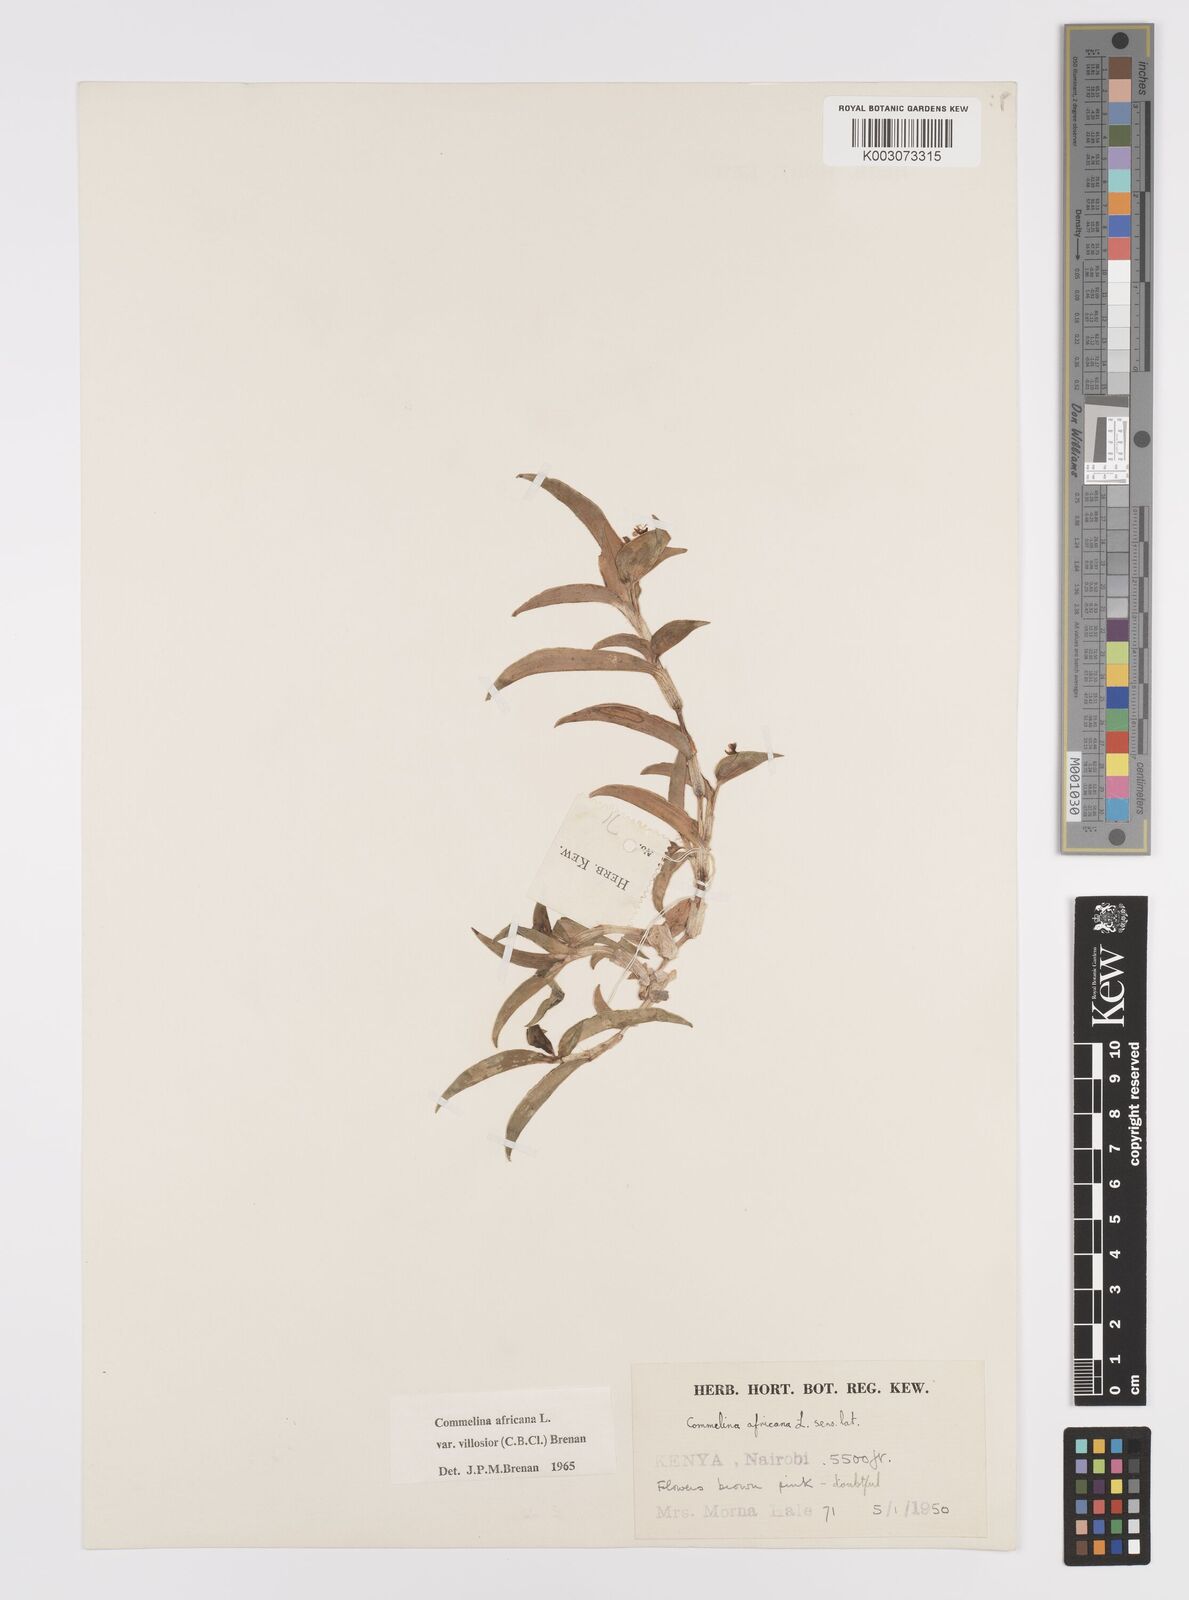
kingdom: Plantae
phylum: Tracheophyta
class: Liliopsida
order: Commelinales
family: Commelinaceae
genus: Commelina
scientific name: Commelina africana
